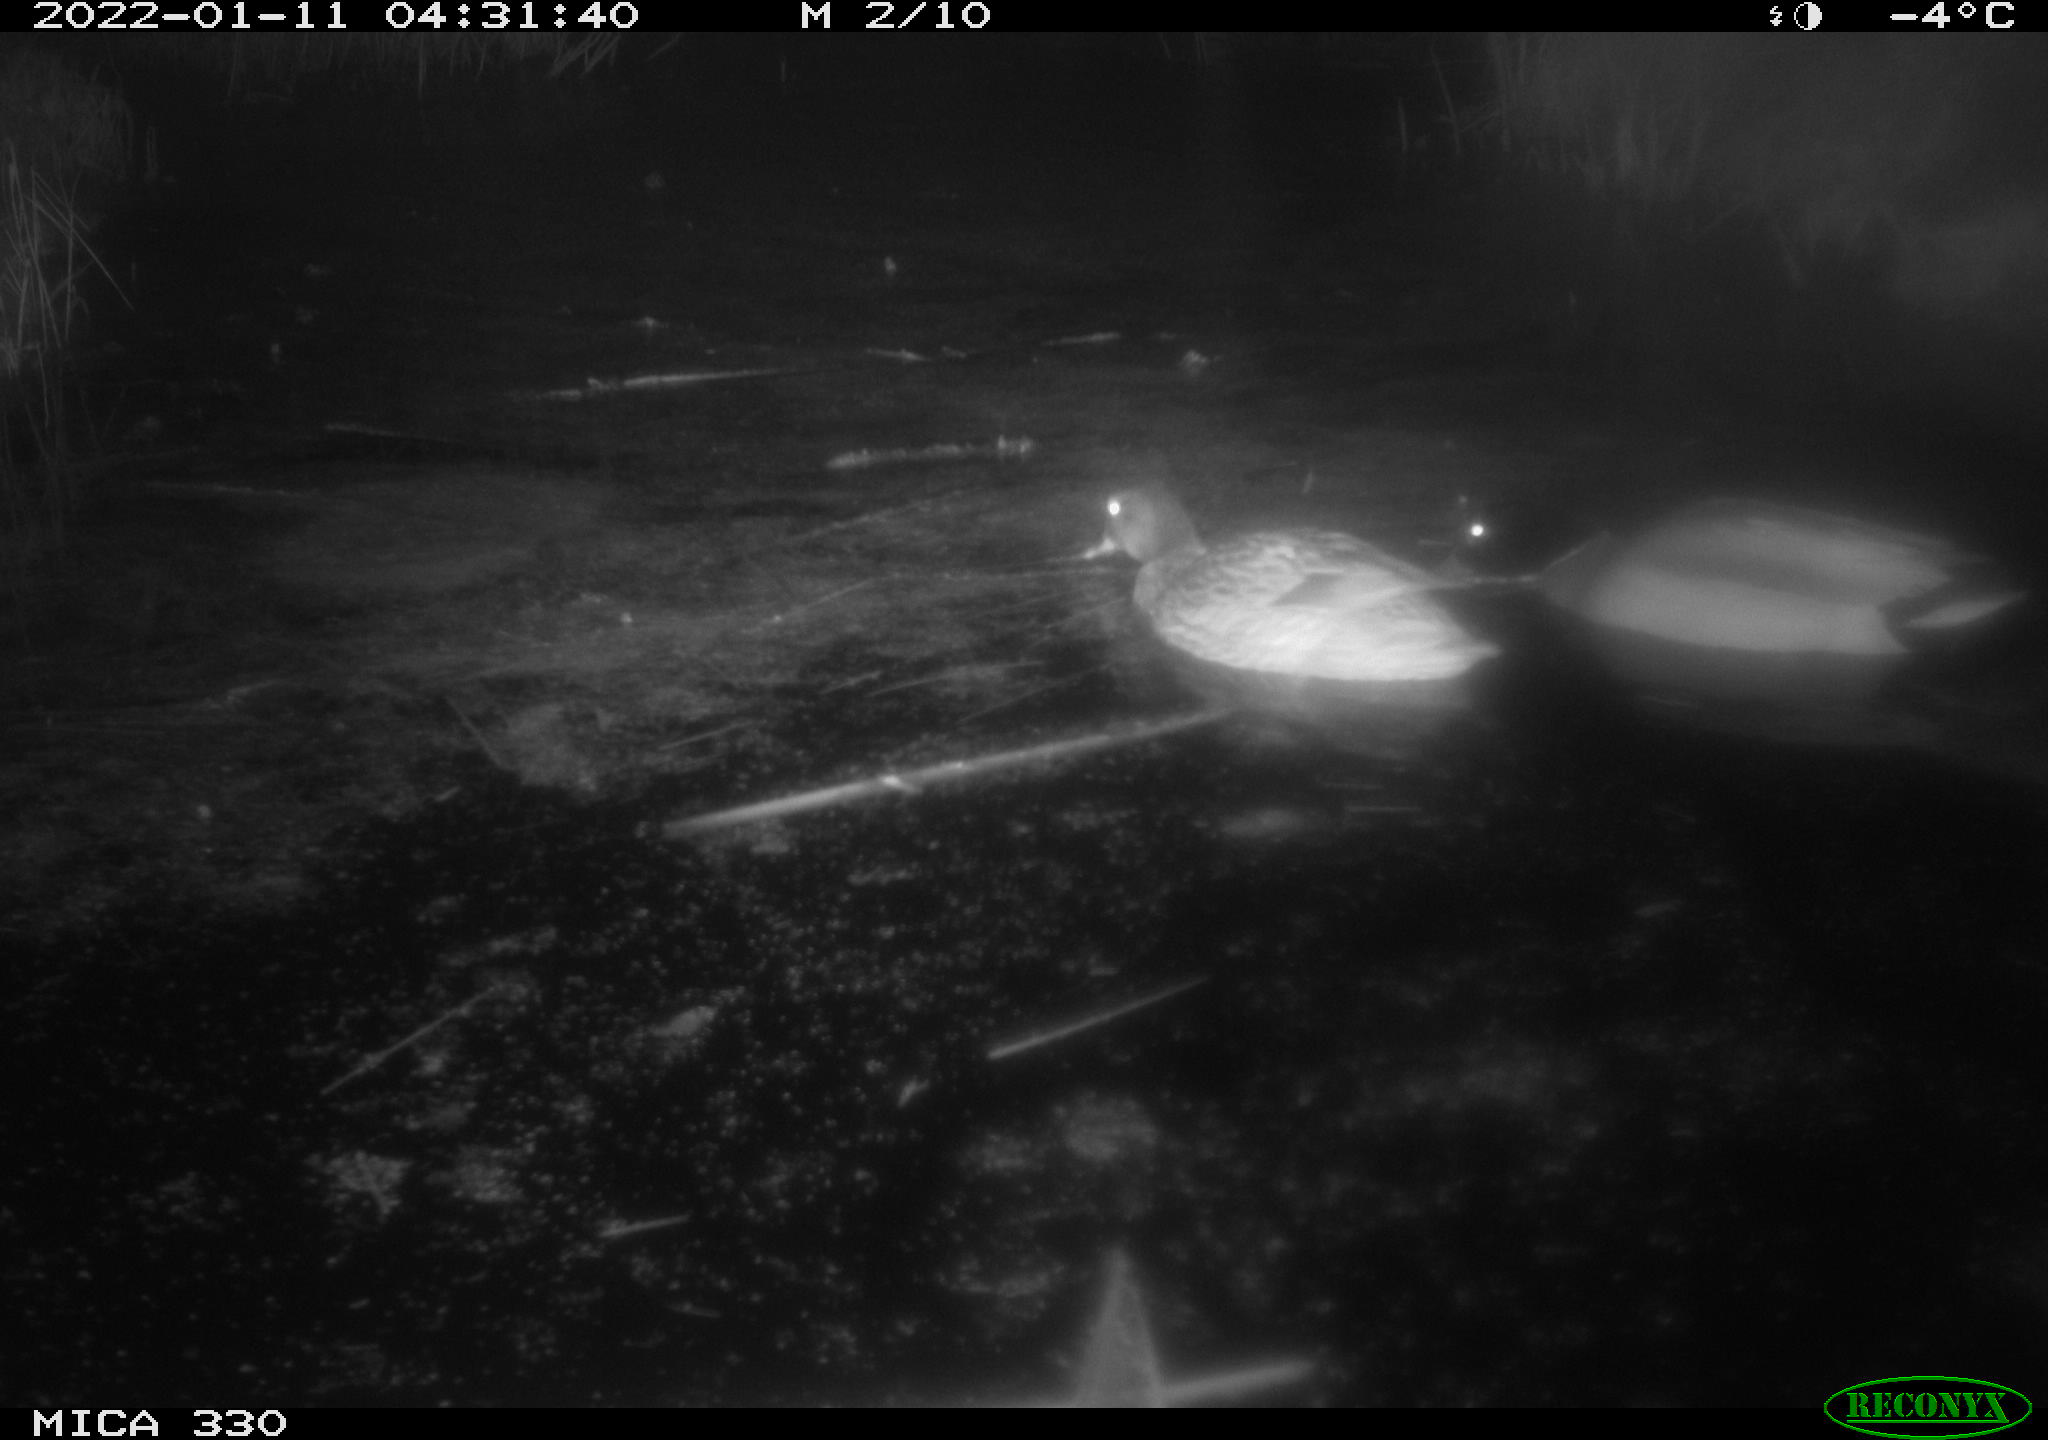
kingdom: Animalia
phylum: Chordata
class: Aves
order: Anseriformes
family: Anatidae
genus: Anas
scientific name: Anas platyrhynchos
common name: Mallard
